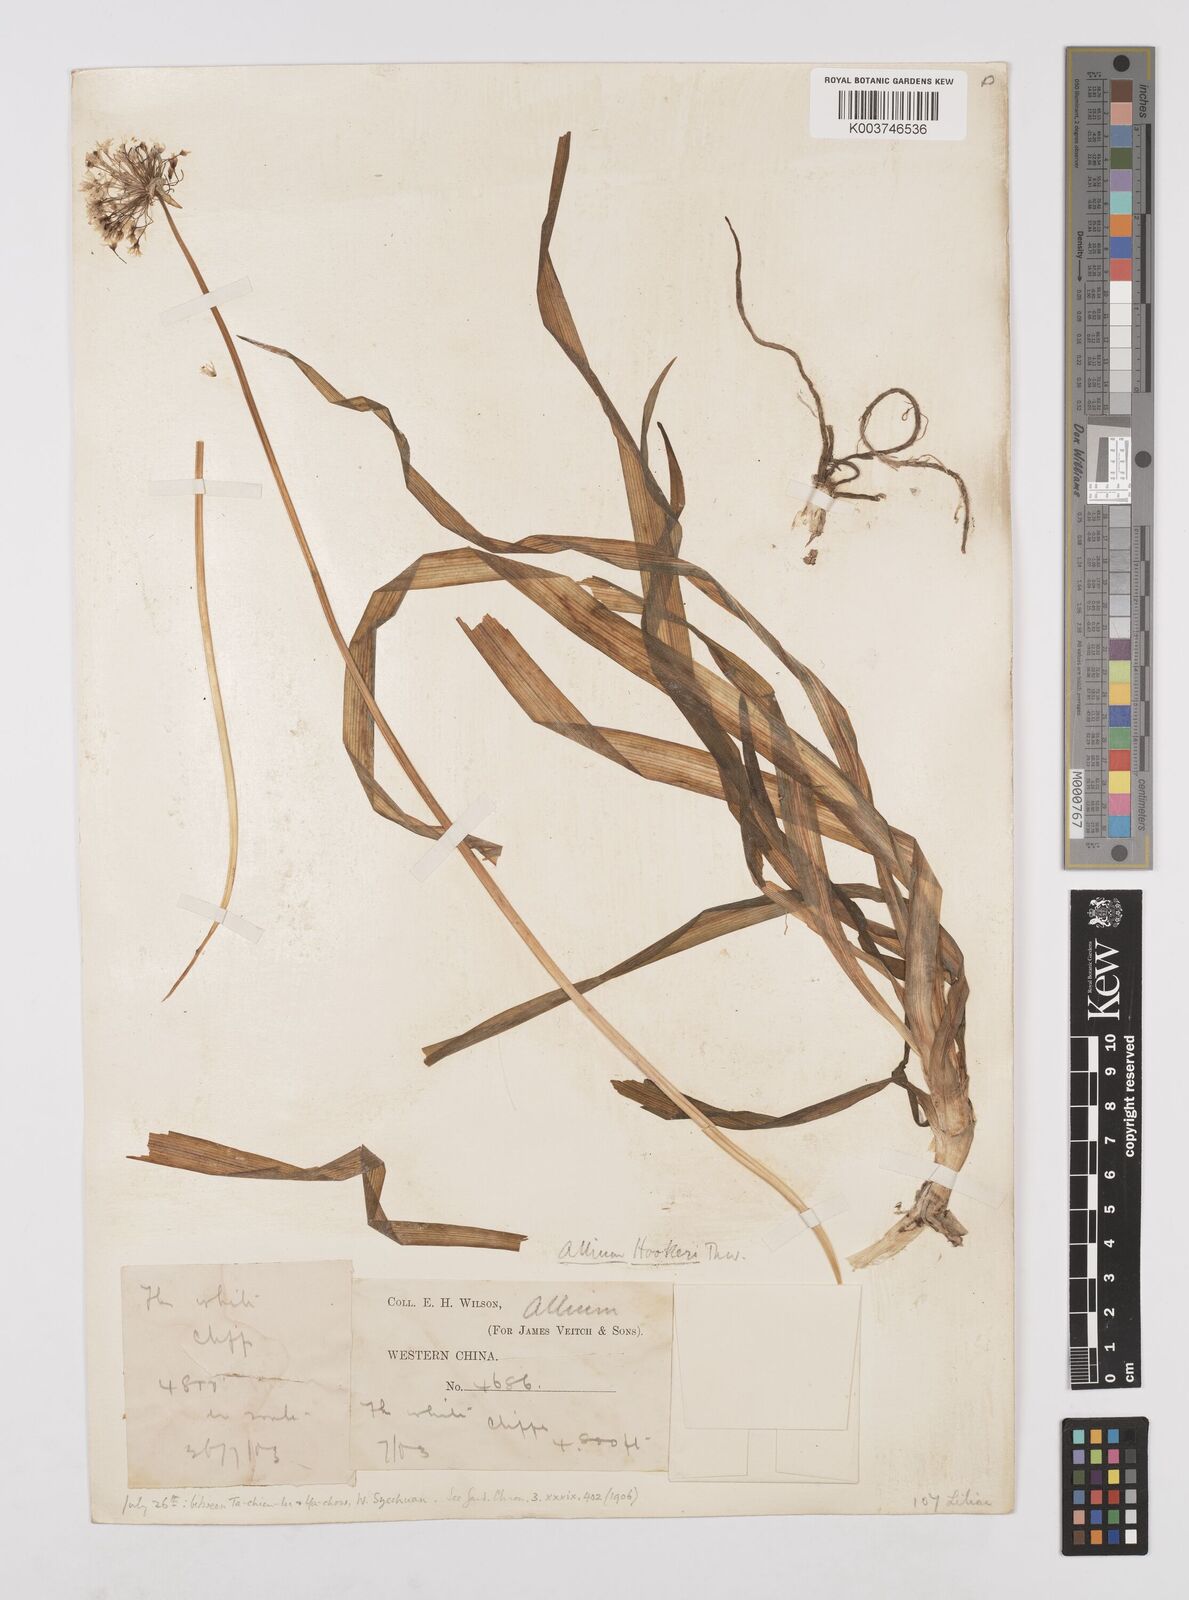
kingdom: Plantae
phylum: Tracheophyta
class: Liliopsida
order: Asparagales
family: Amaryllidaceae
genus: Allium
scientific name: Allium hookeri
